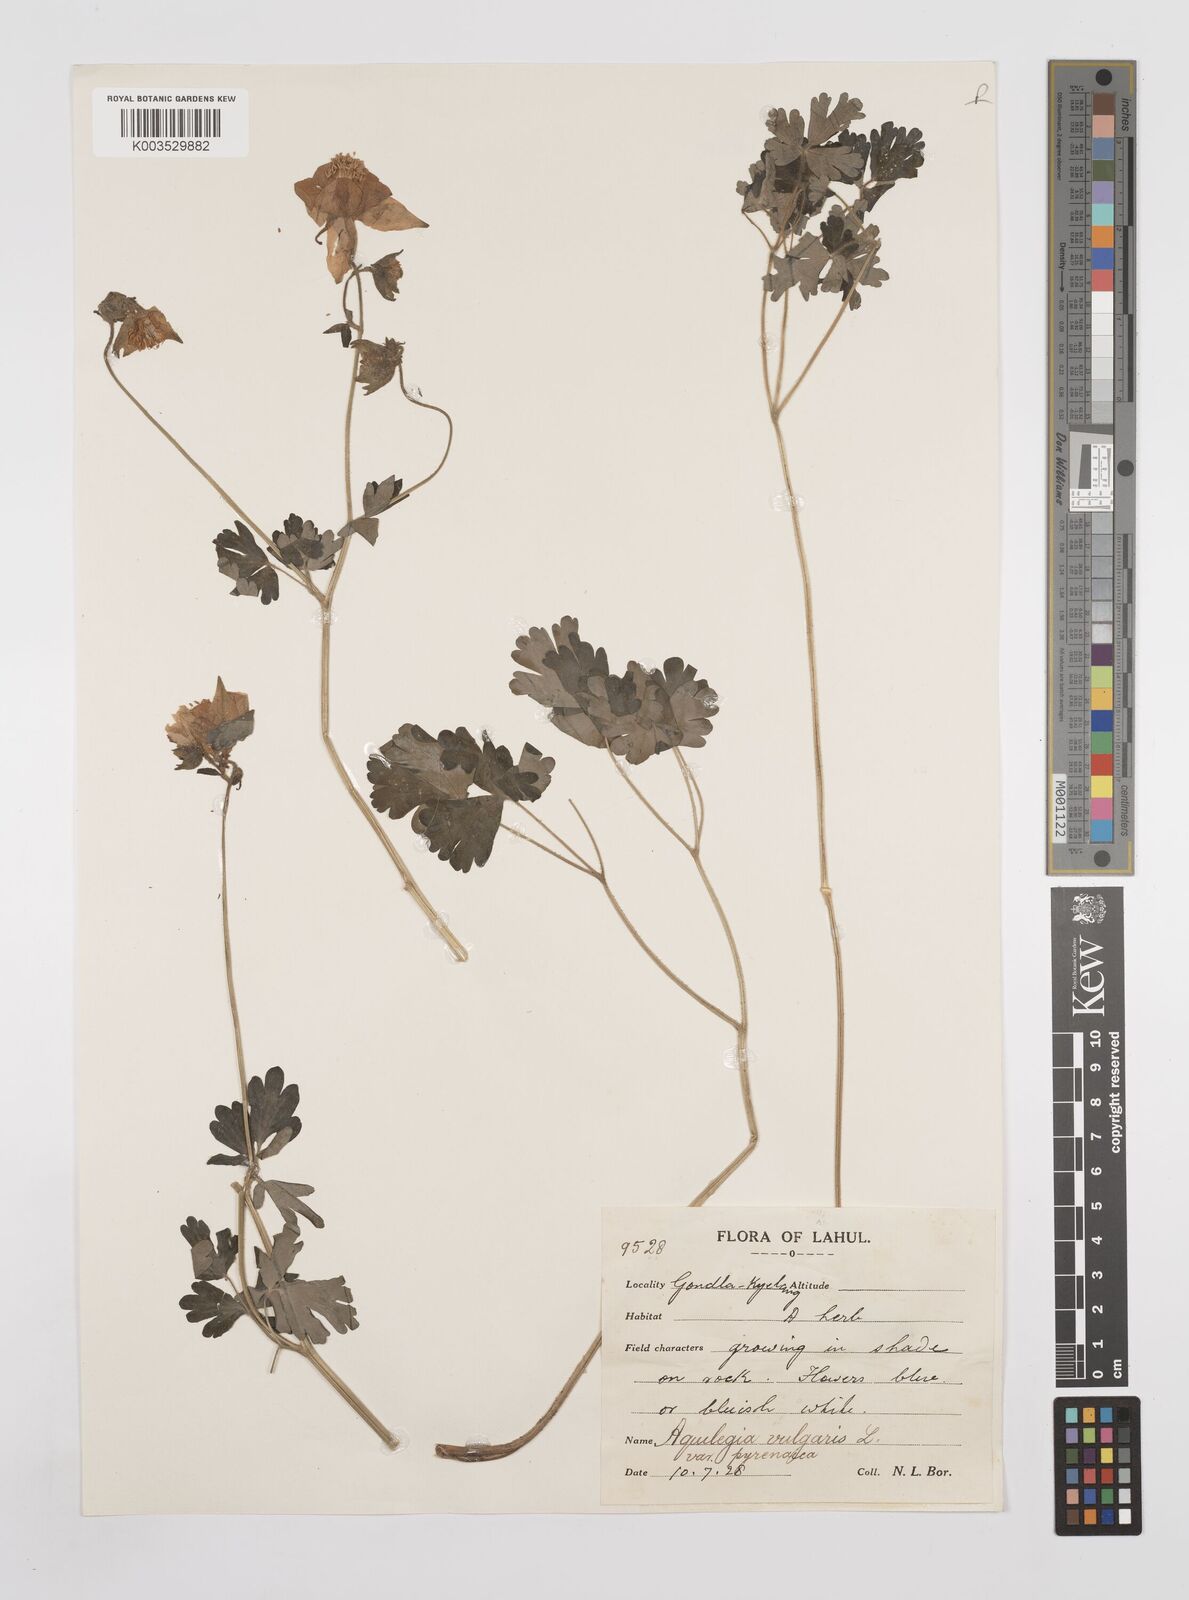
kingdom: Plantae
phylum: Tracheophyta
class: Magnoliopsida
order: Ranunculales
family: Ranunculaceae
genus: Aquilegia
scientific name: Aquilegia brevistyla
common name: Yukon columbine
